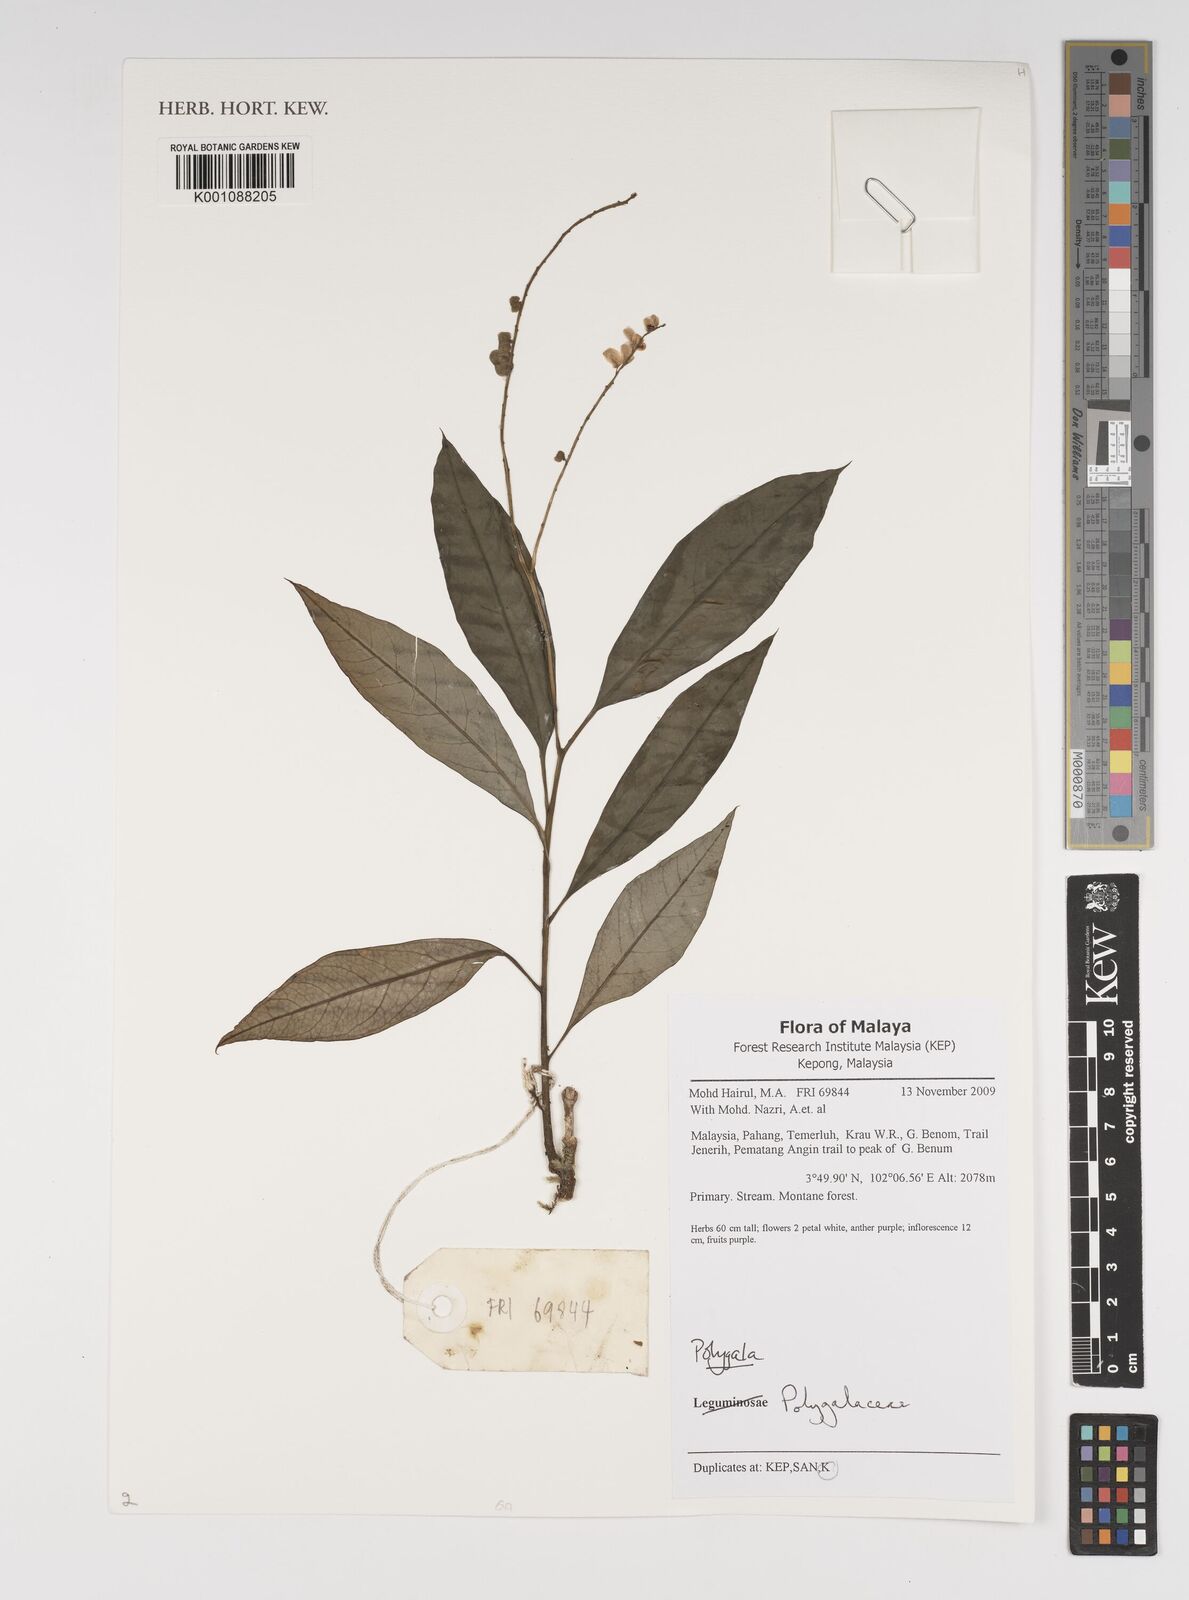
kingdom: Plantae
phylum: Tracheophyta
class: Magnoliopsida
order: Fabales
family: Polygalaceae
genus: Polygala
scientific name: Polygala
